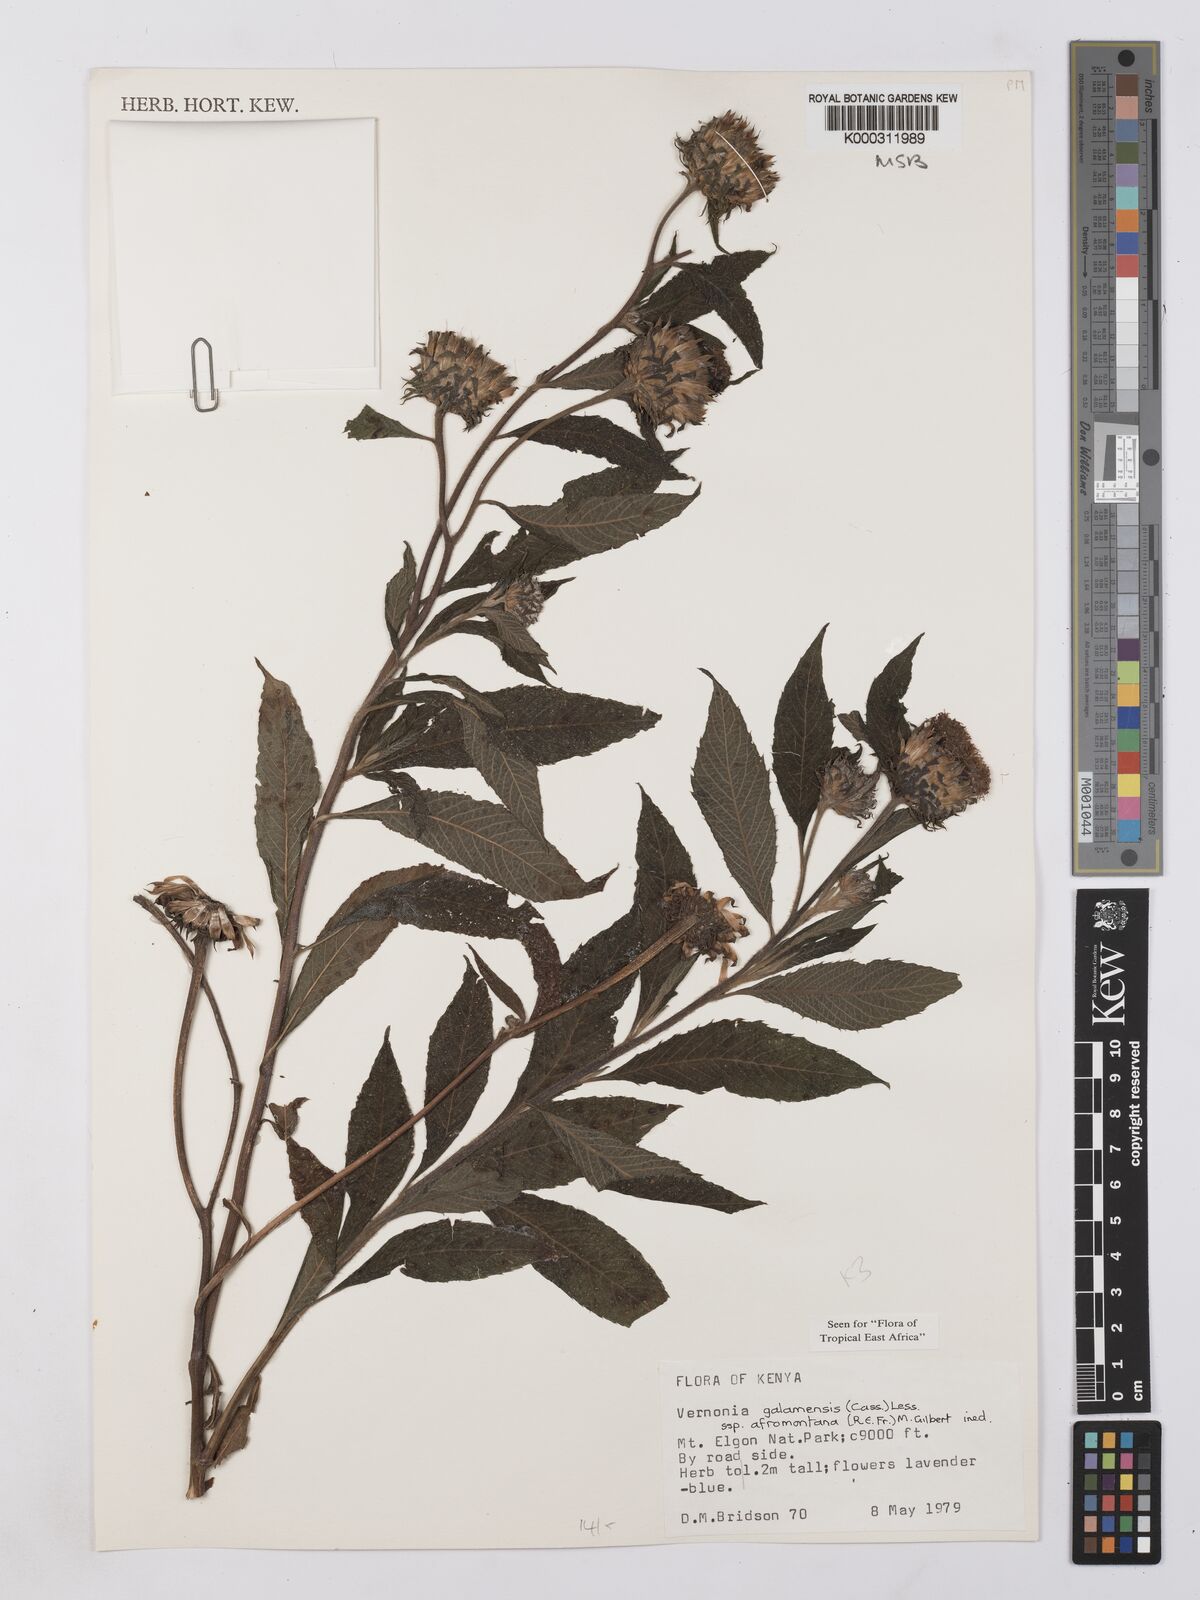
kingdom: Plantae
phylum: Tracheophyta
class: Magnoliopsida
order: Asterales
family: Asteraceae
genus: Vernonia
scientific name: Vernonia galamensis
